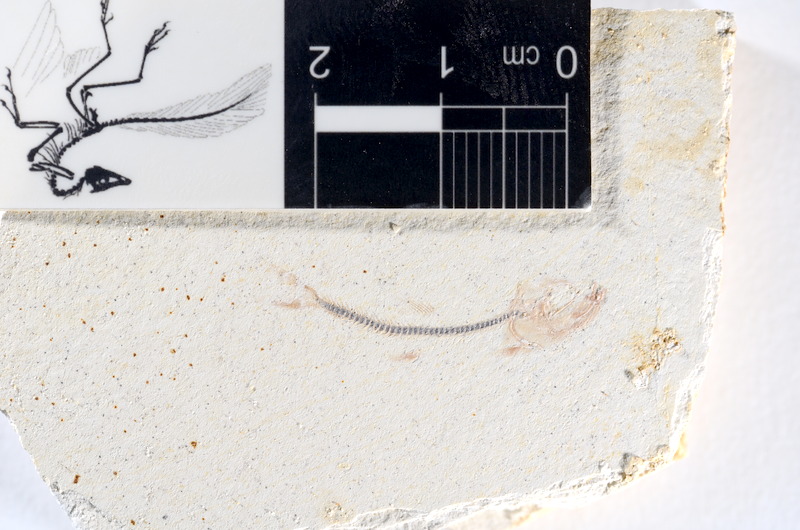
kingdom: Animalia
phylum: Chordata
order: Salmoniformes
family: Orthogonikleithridae
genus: Orthogonikleithrus
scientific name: Orthogonikleithrus hoelli
